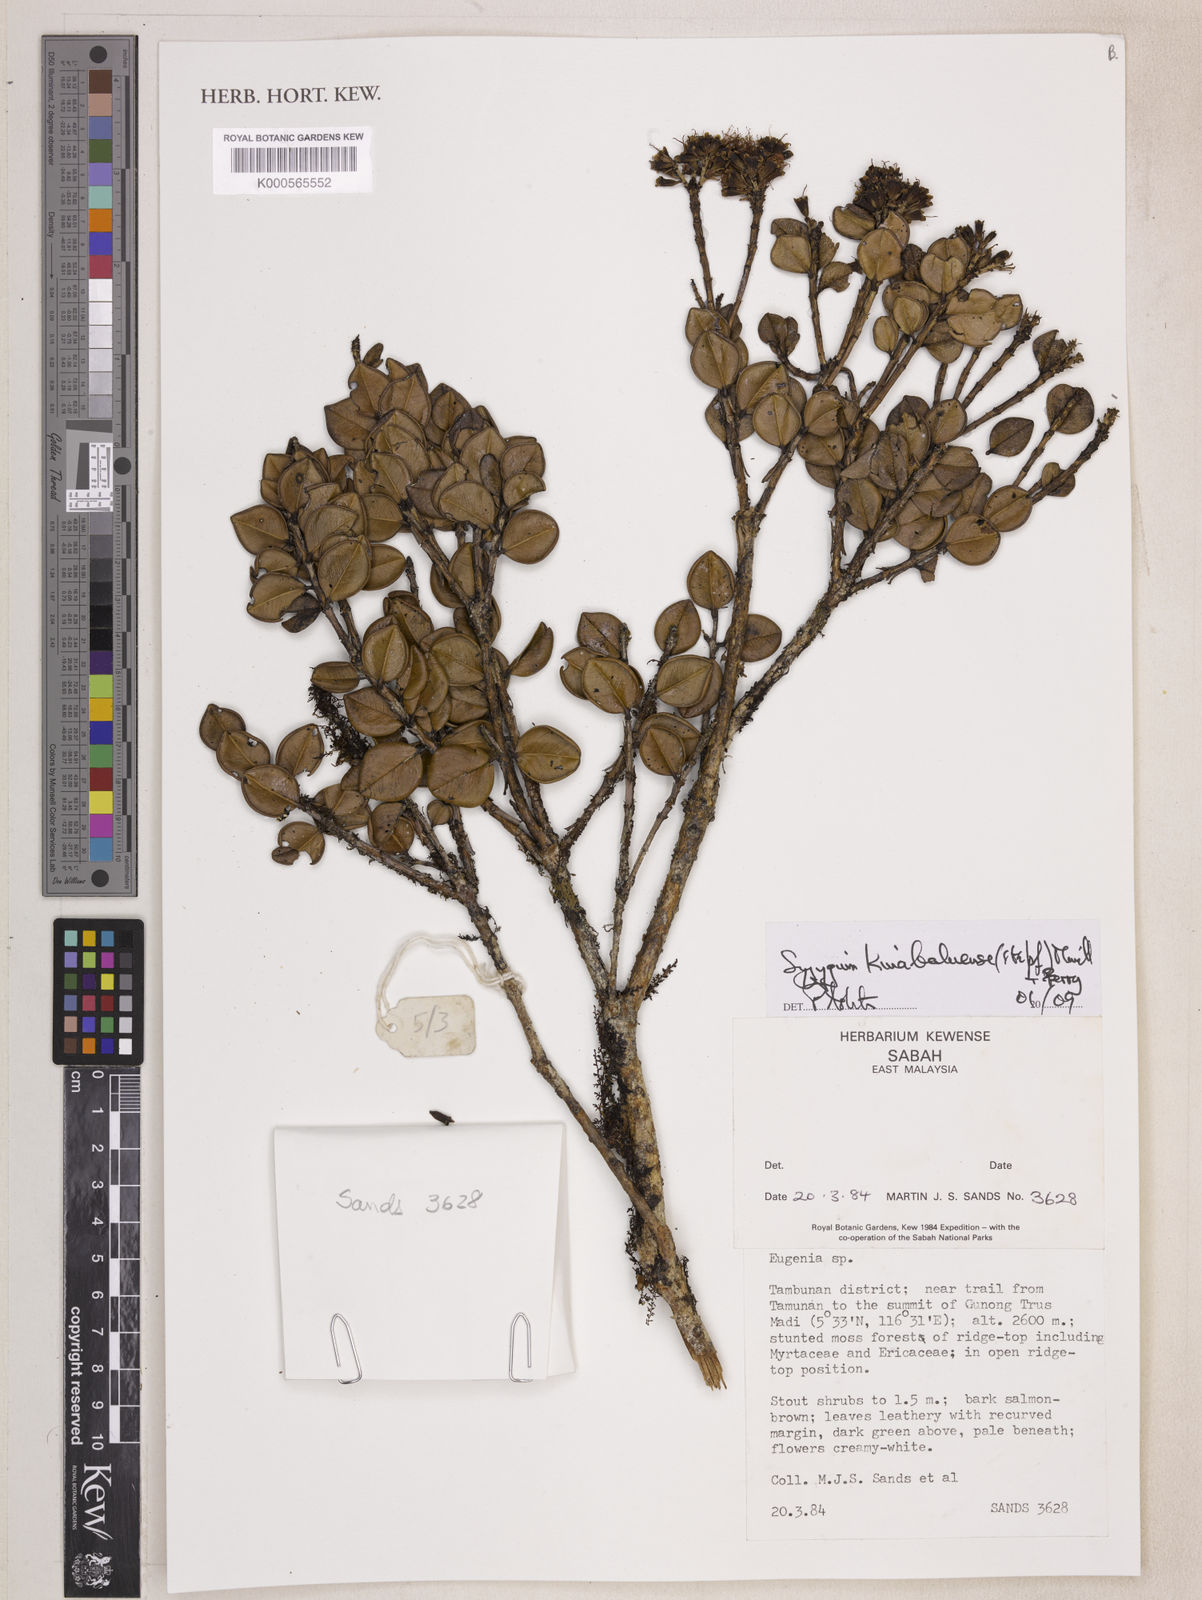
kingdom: Plantae
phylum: Tracheophyta
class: Magnoliopsida
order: Myrtales
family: Myrtaceae
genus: Syzygium
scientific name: Syzygium kinabaluense
